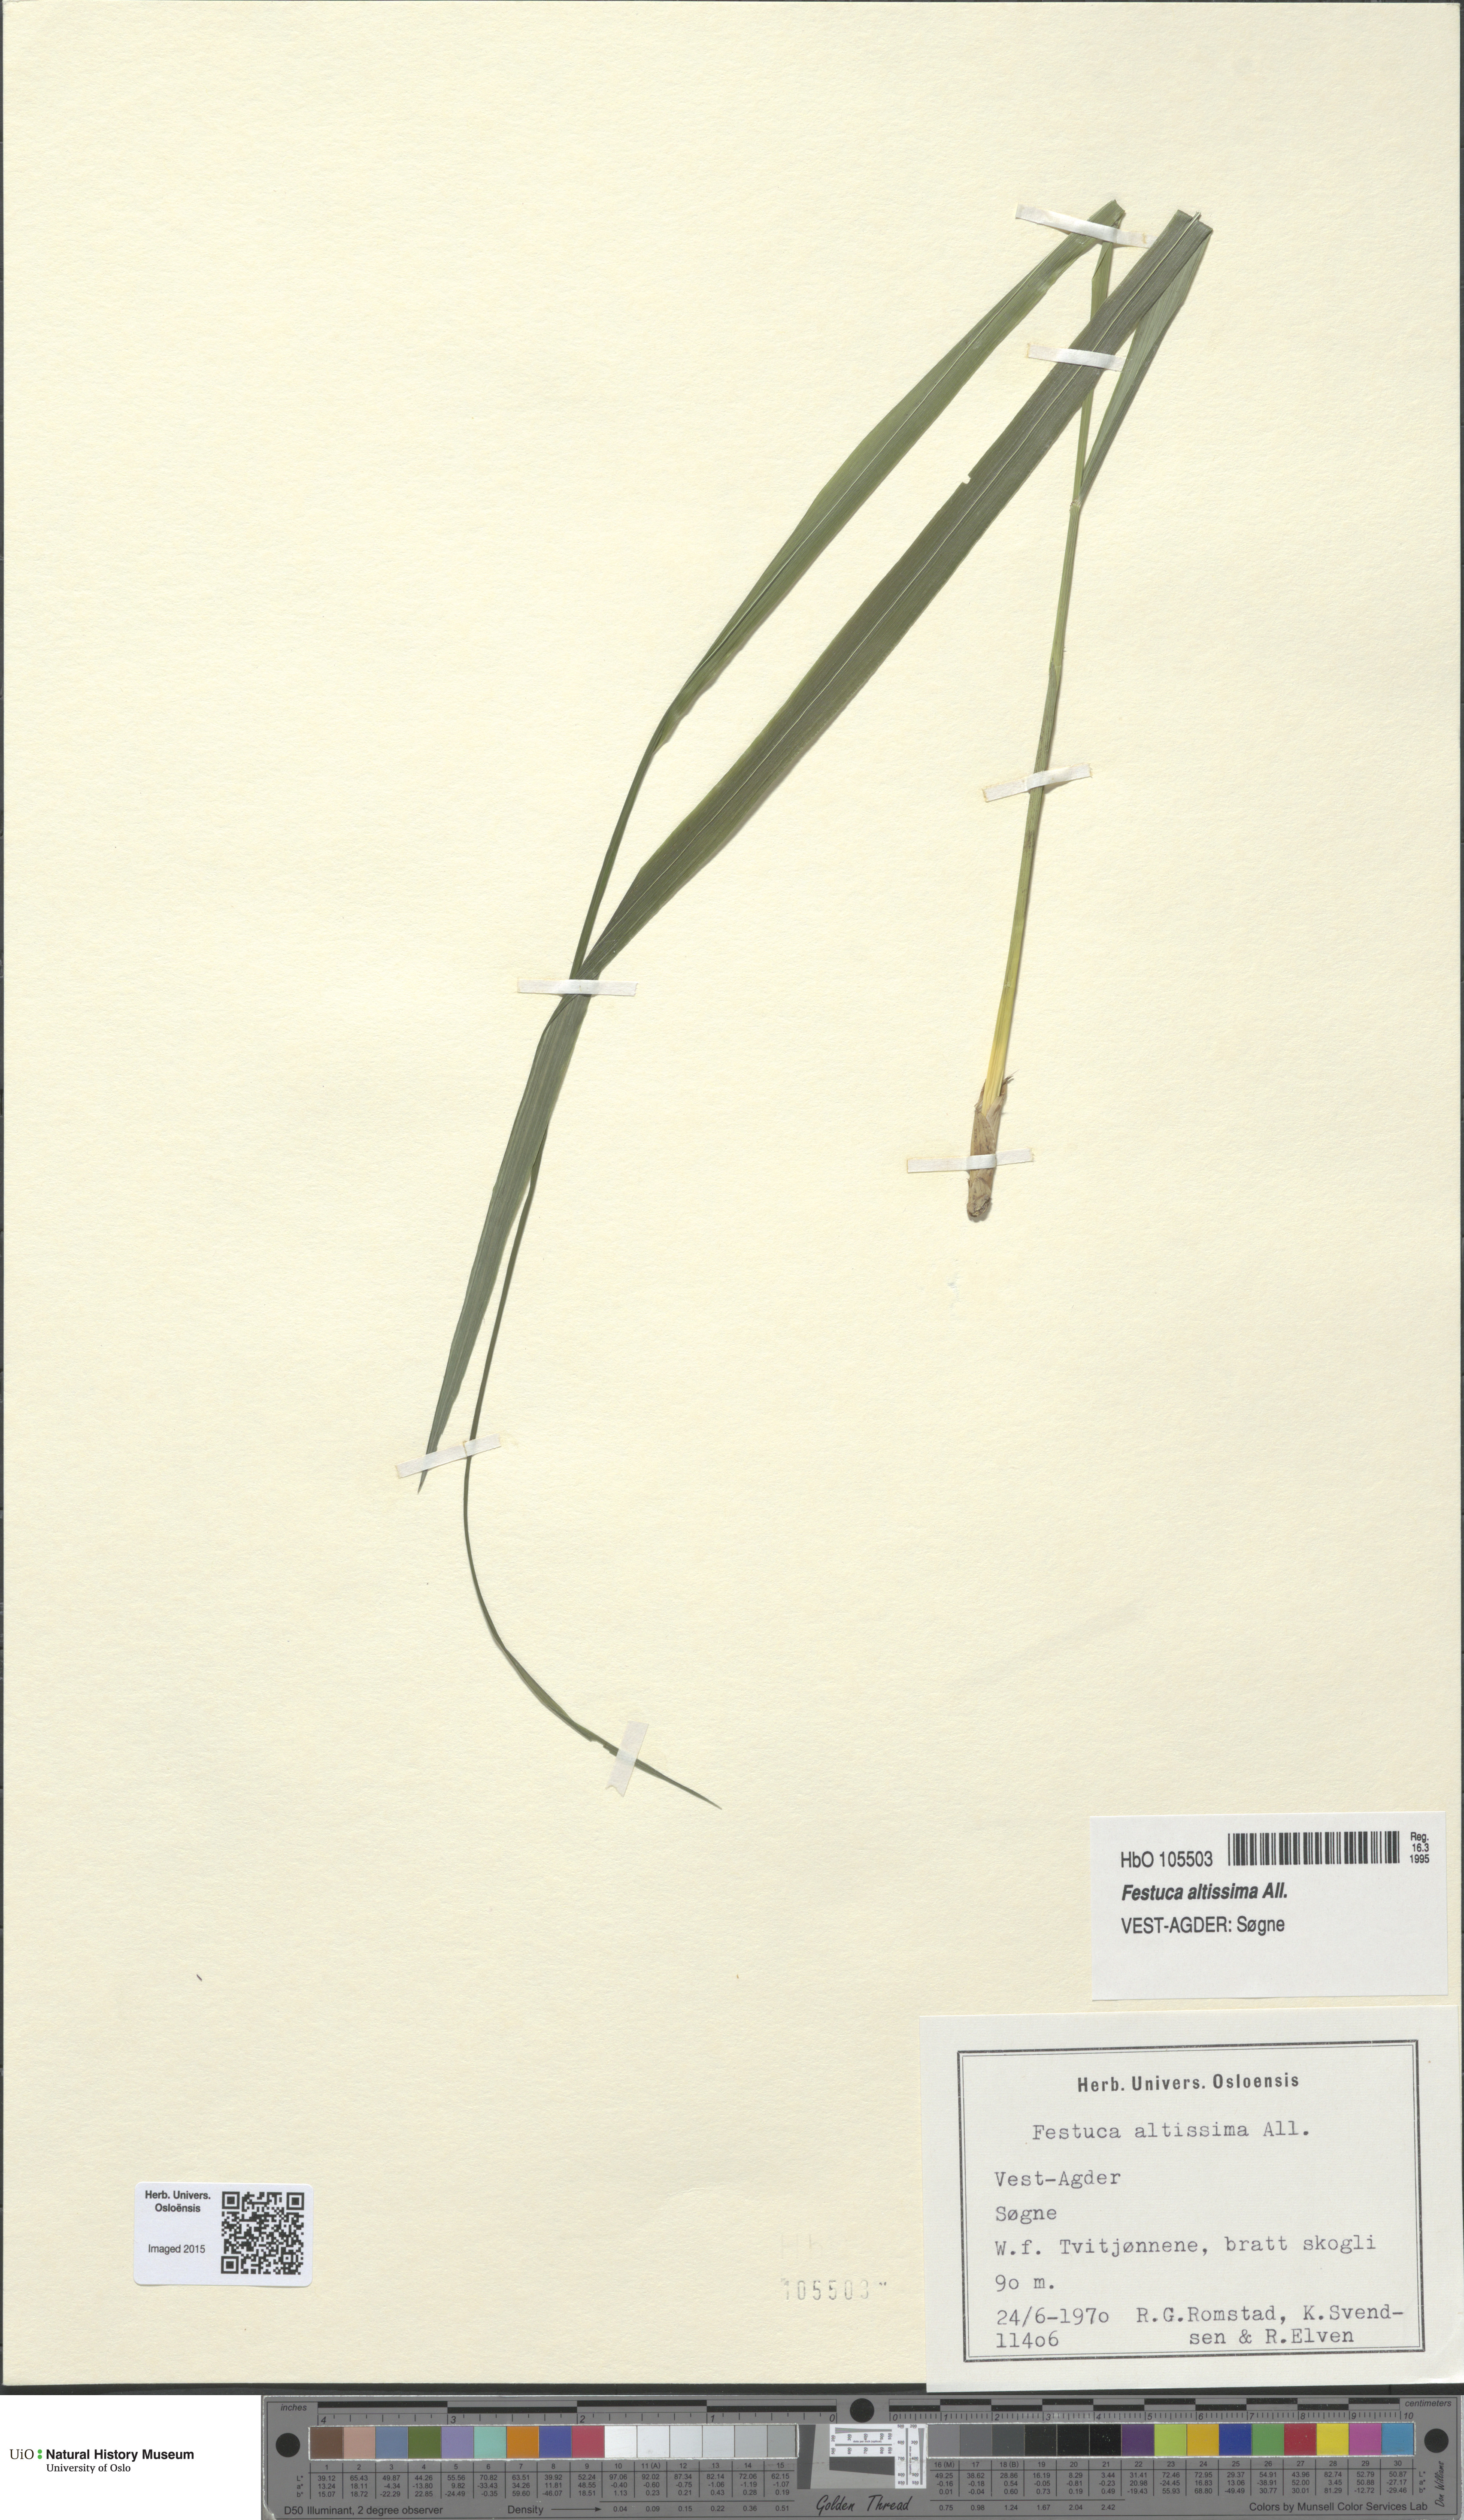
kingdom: Plantae
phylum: Tracheophyta
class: Liliopsida
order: Poales
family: Poaceae
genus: Festuca
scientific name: Festuca altissima
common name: Wood fescue
